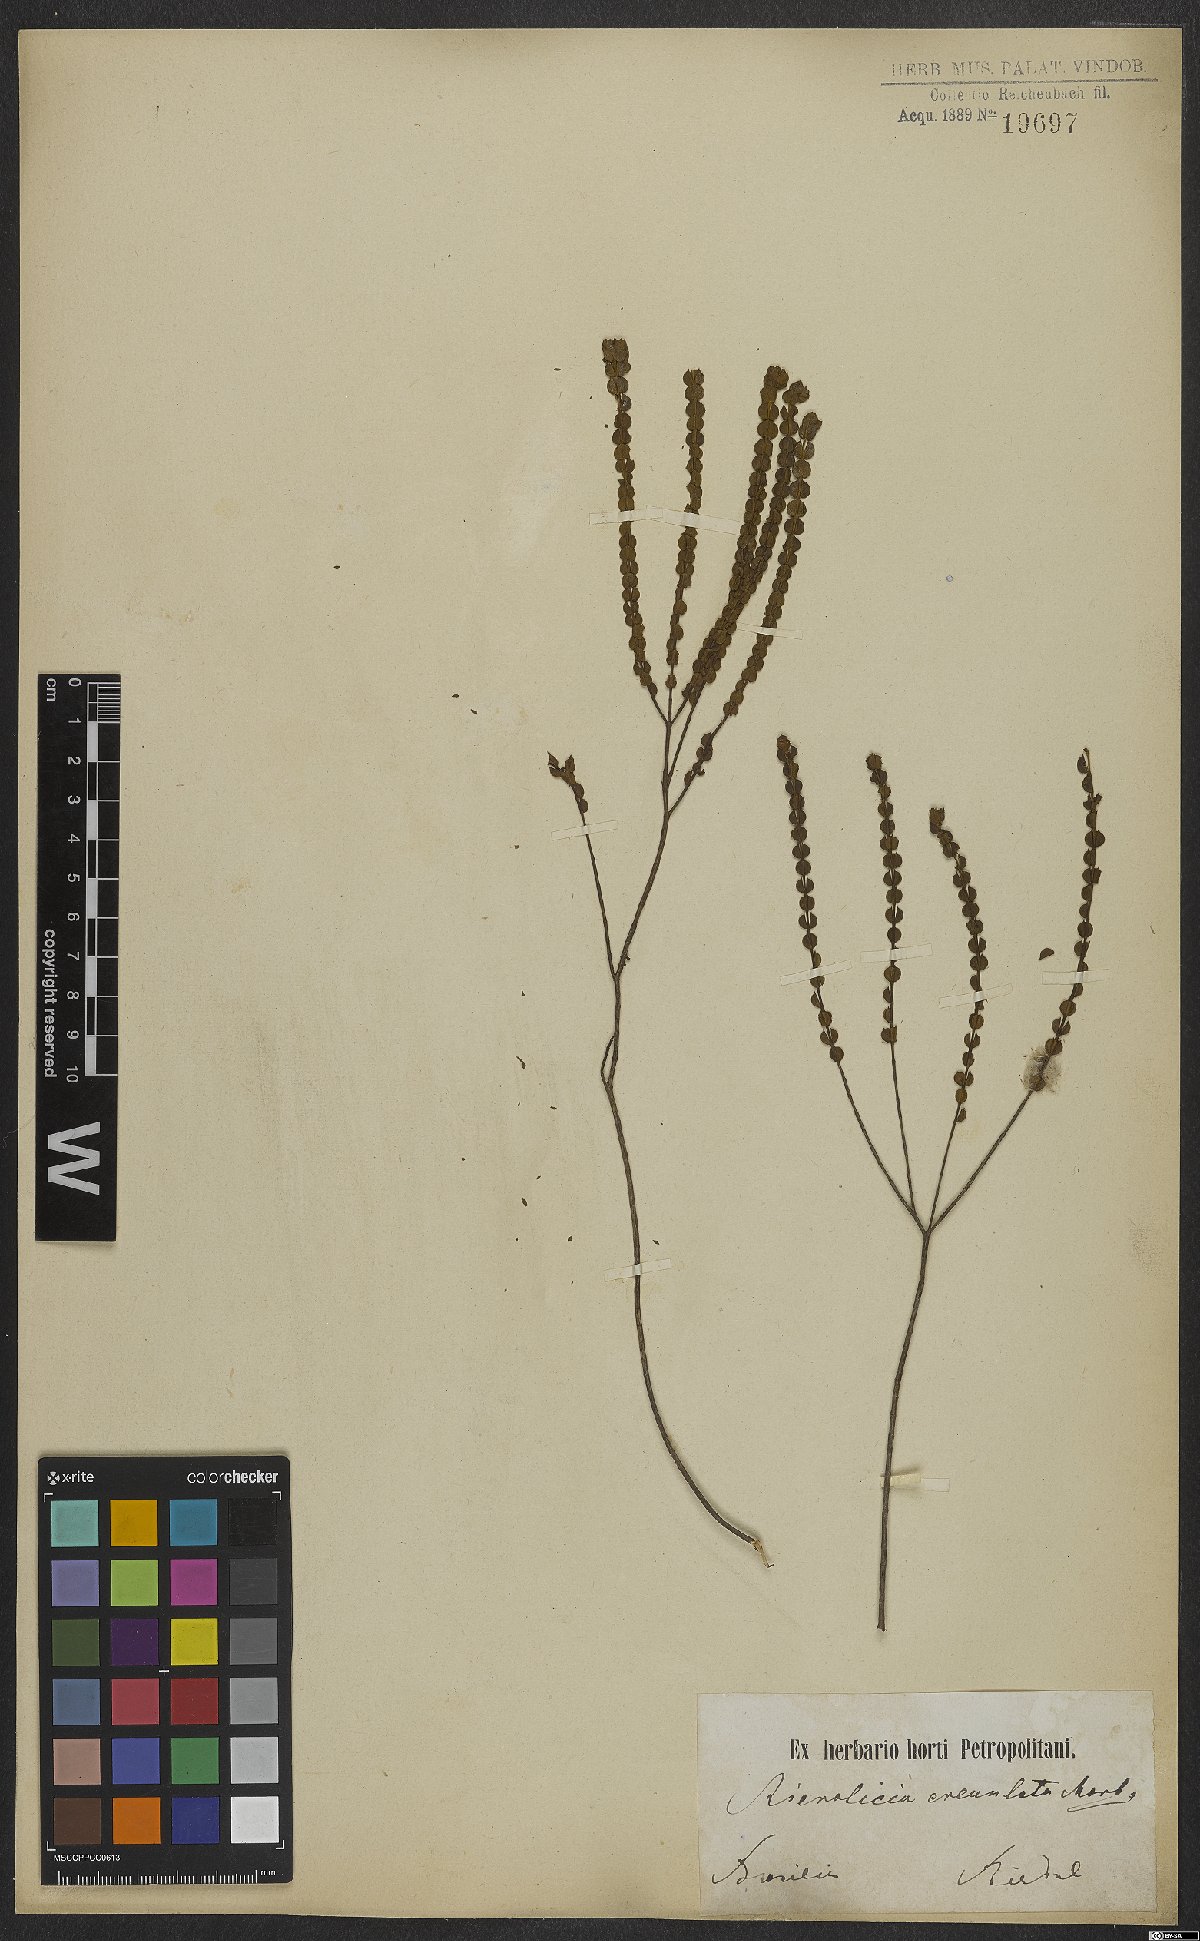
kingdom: Plantae
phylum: Tracheophyta
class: Magnoliopsida
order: Myrtales
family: Melastomataceae
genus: Microlicia
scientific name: Microlicia multicaulis
